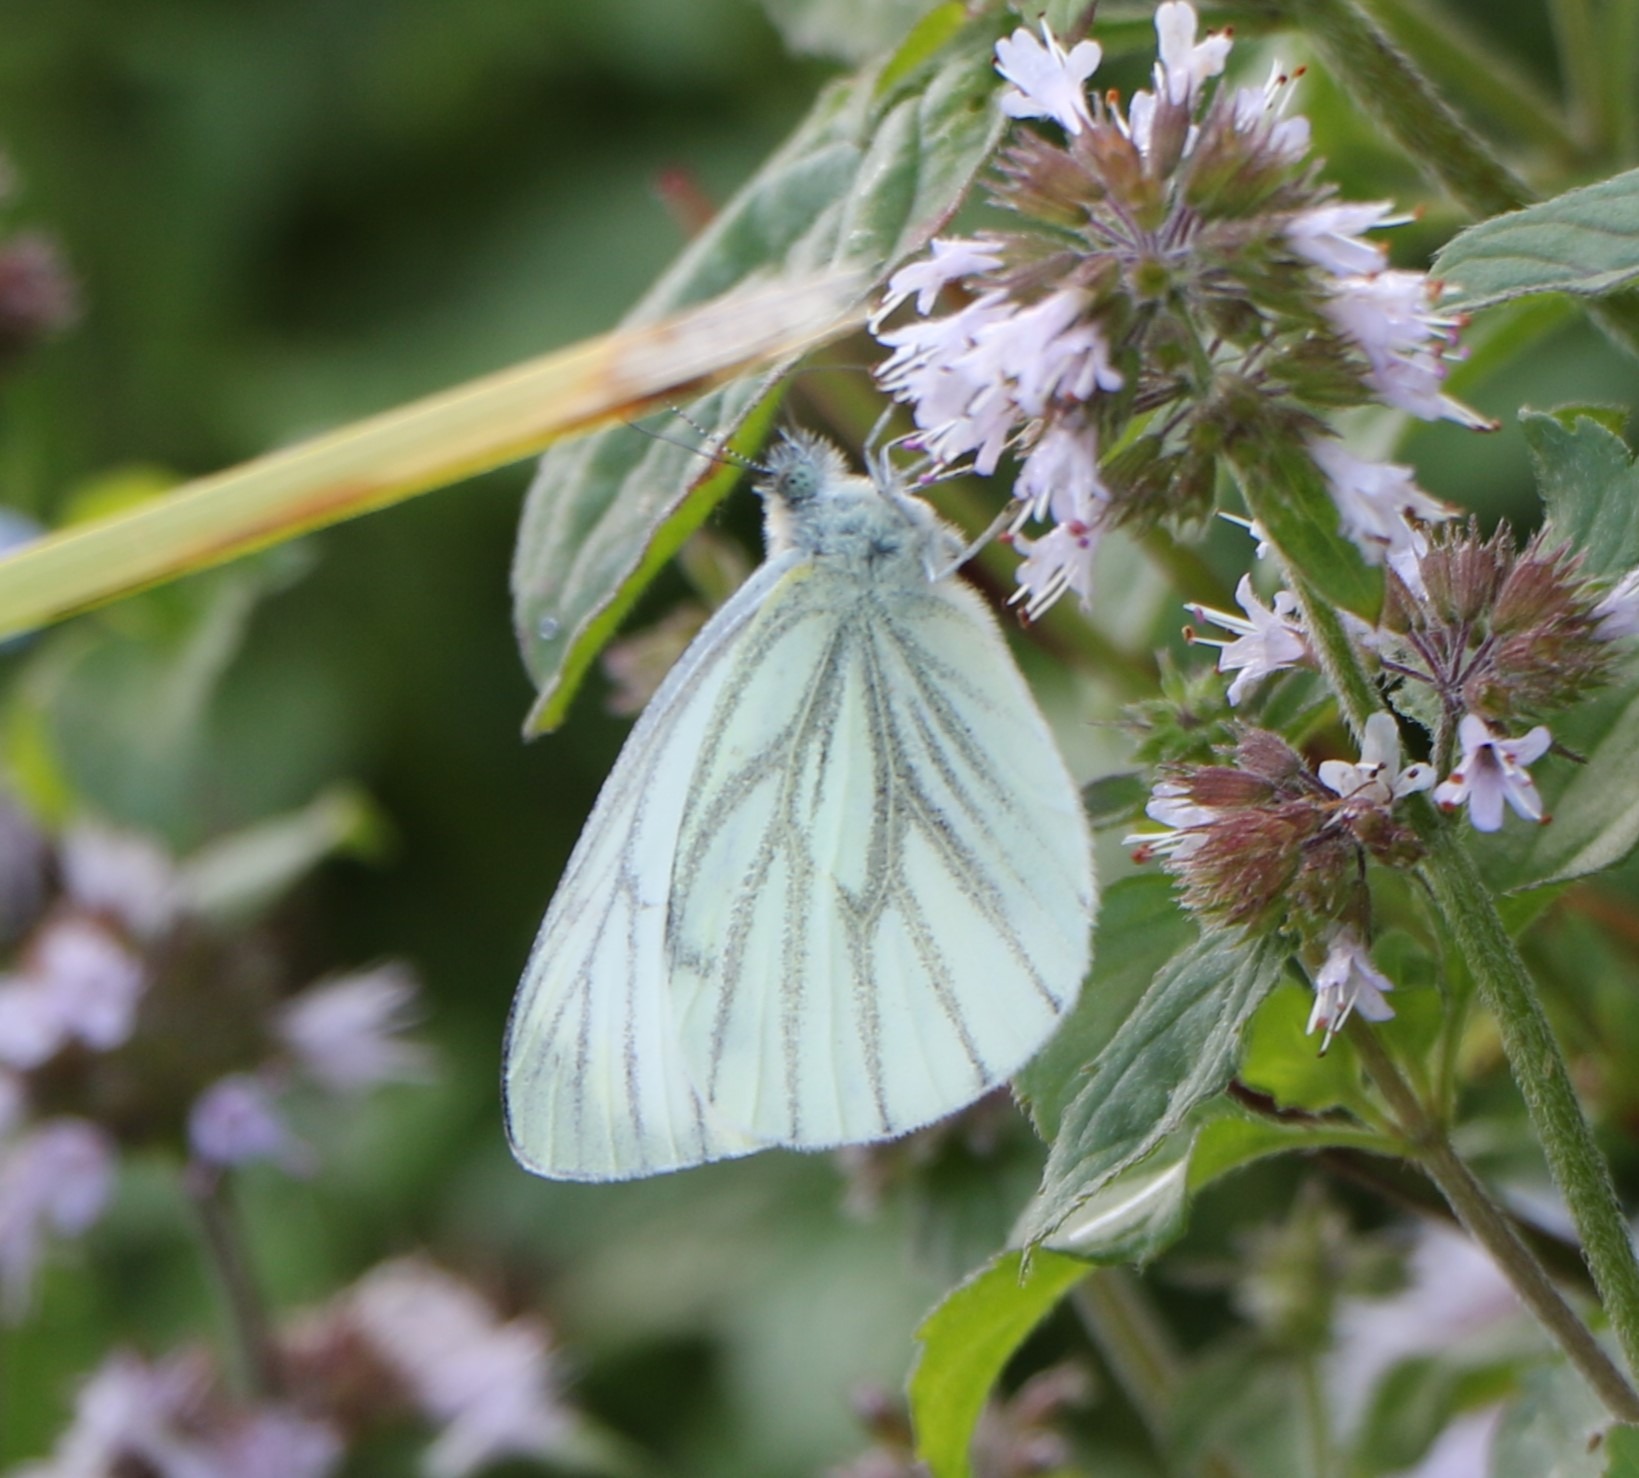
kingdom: Animalia
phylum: Arthropoda
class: Insecta
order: Lepidoptera
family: Pieridae
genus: Pieris
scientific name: Pieris napi
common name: Grønåret kålsommerfugl
